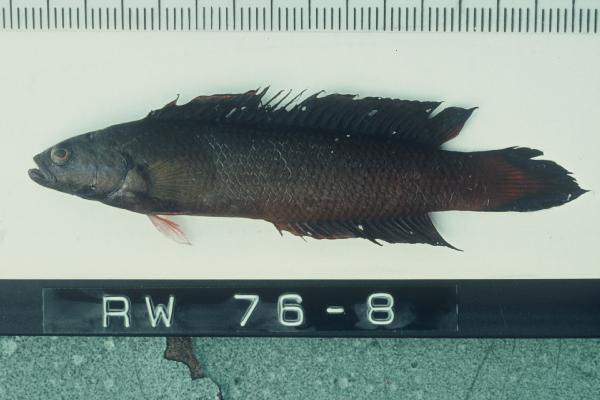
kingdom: Animalia
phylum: Chordata
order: Perciformes
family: Pseudochromidae
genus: Pseudochromis
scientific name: Pseudochromis
